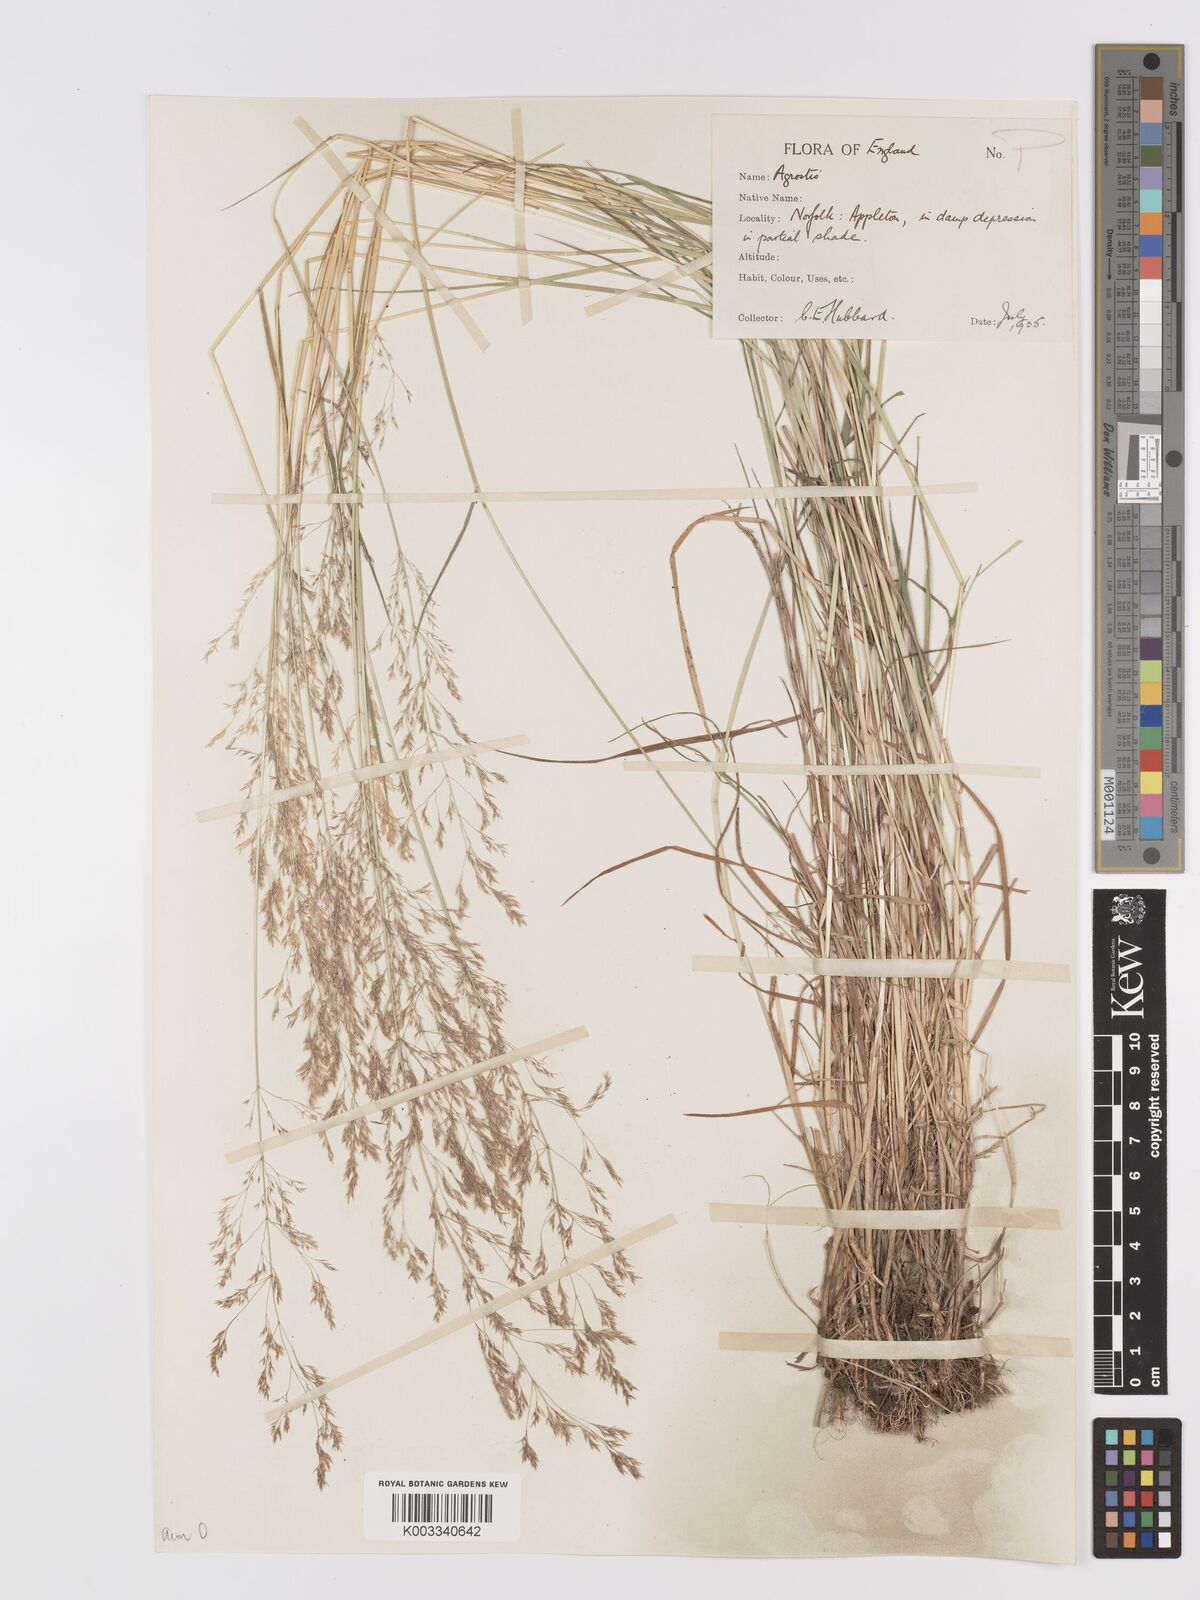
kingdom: Plantae
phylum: Tracheophyta
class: Liliopsida
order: Poales
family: Poaceae
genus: Agrostis
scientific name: Agrostis capillaris
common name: Colonial bentgrass
